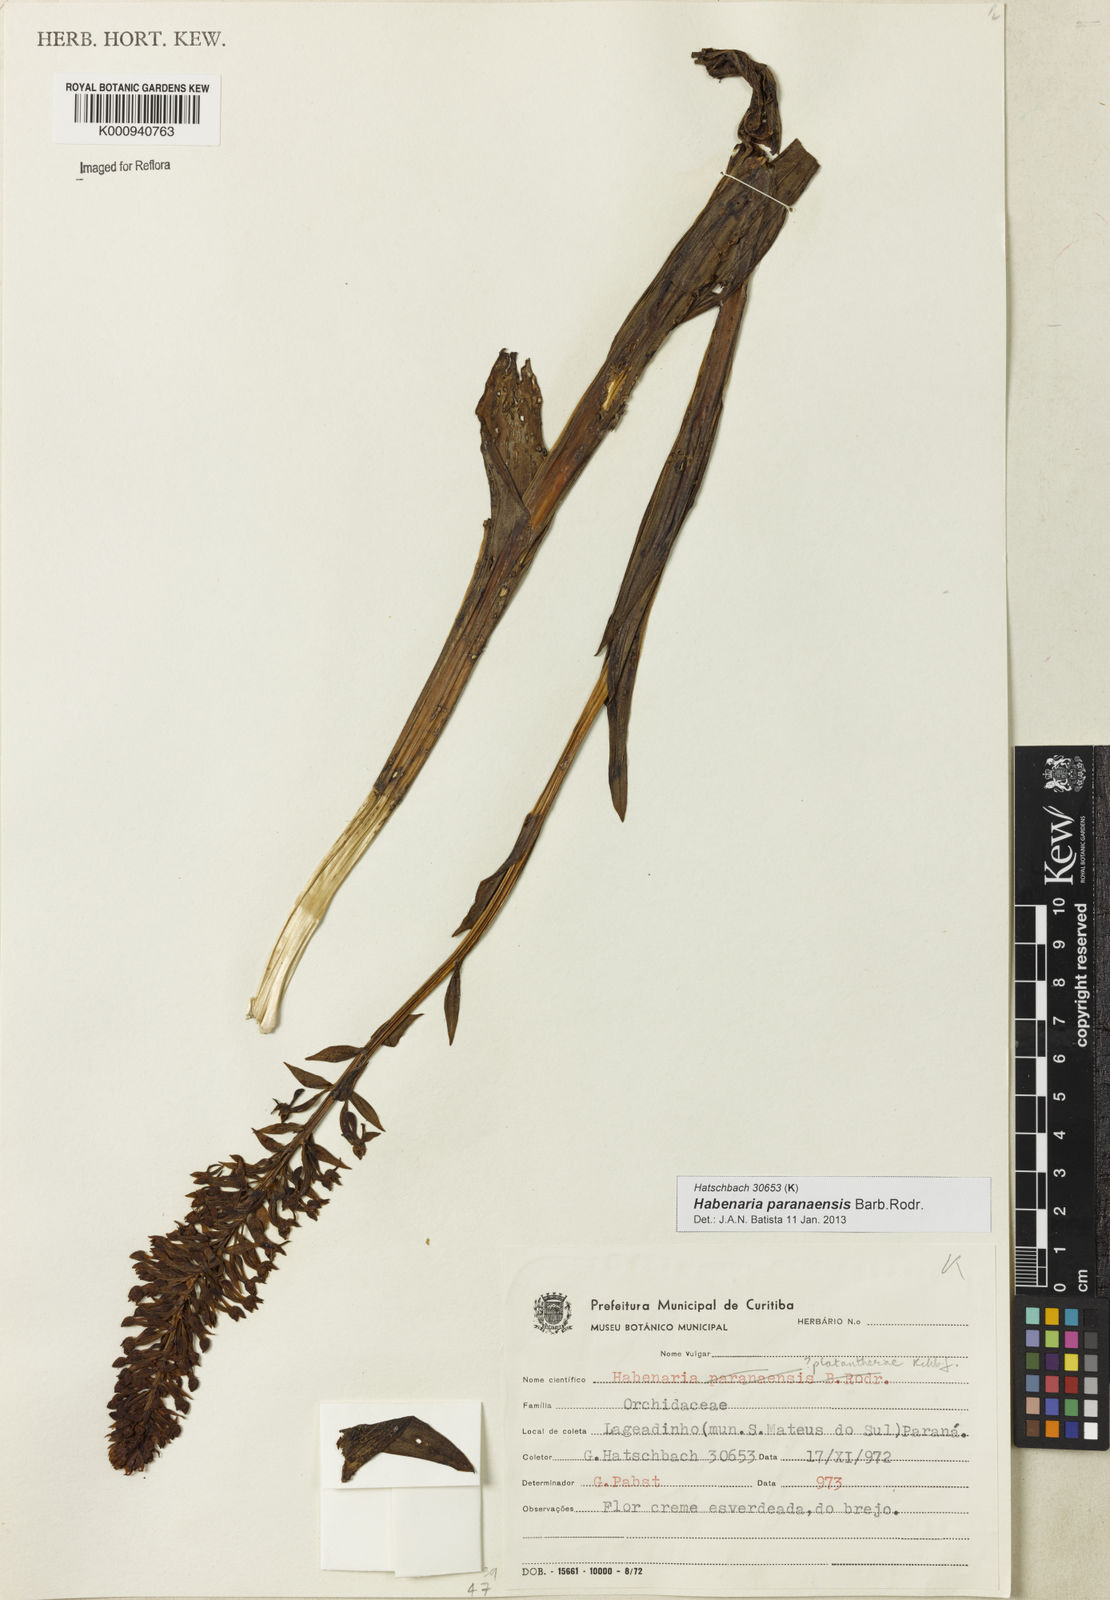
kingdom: Plantae
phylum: Tracheophyta
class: Liliopsida
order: Asparagales
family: Orchidaceae
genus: Habenaria
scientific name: Habenaria paranaensis
